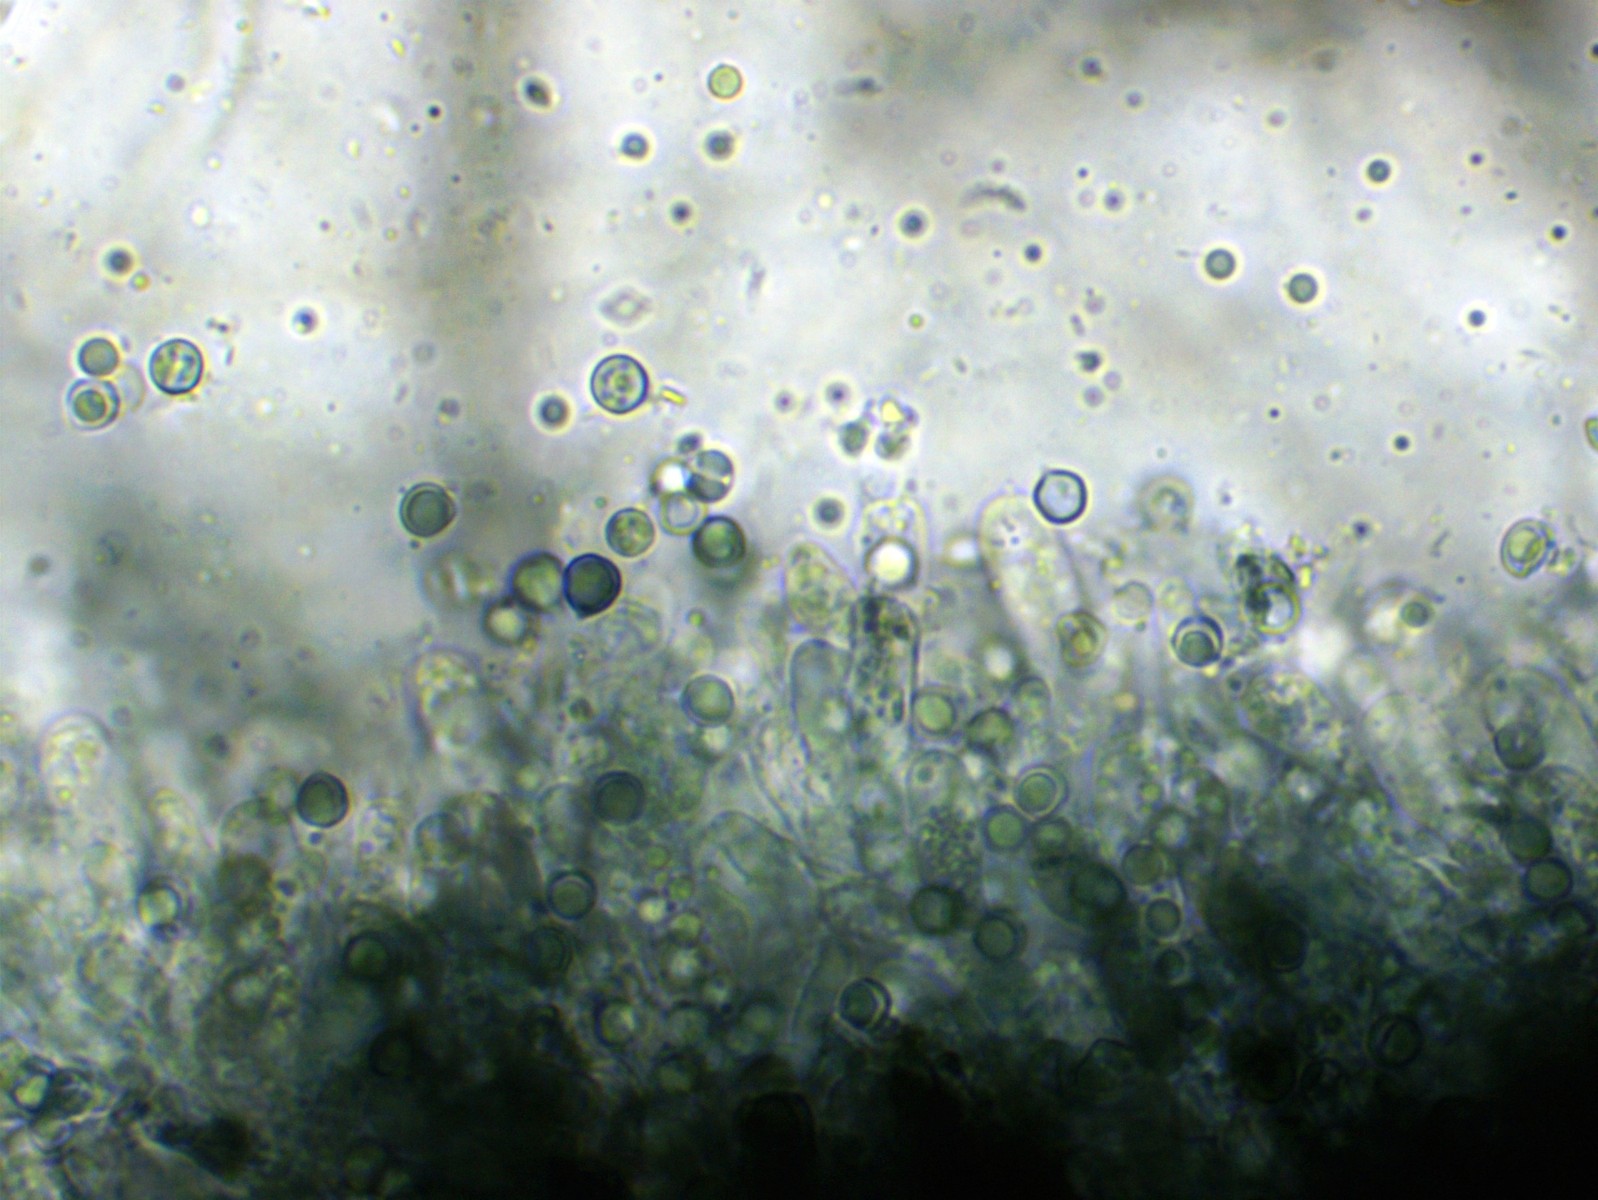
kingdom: Fungi
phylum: Basidiomycota
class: Agaricomycetes
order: Atheliales
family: Atheliaceae
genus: Byssocorticium
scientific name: Byssocorticium
